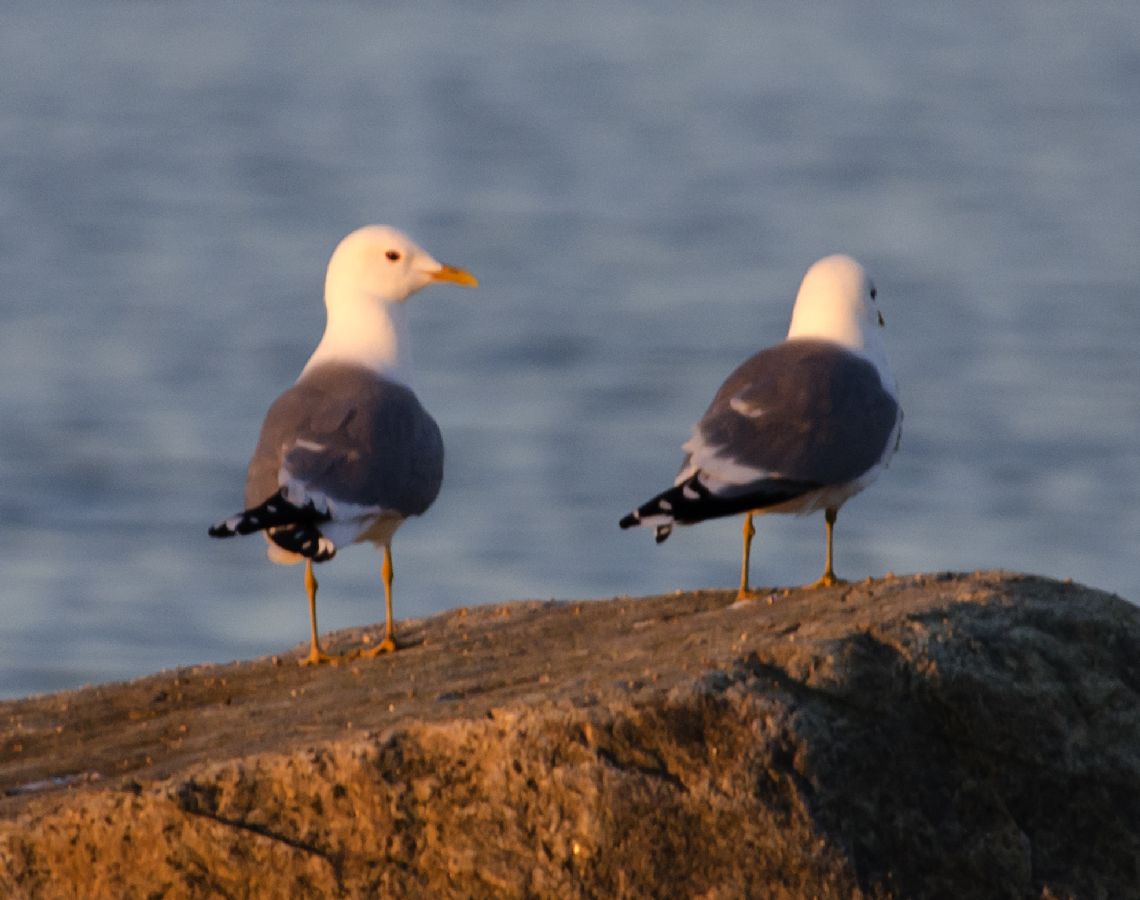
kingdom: Animalia
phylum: Chordata
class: Aves
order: Charadriiformes
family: Laridae
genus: Larus
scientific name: Larus canus
